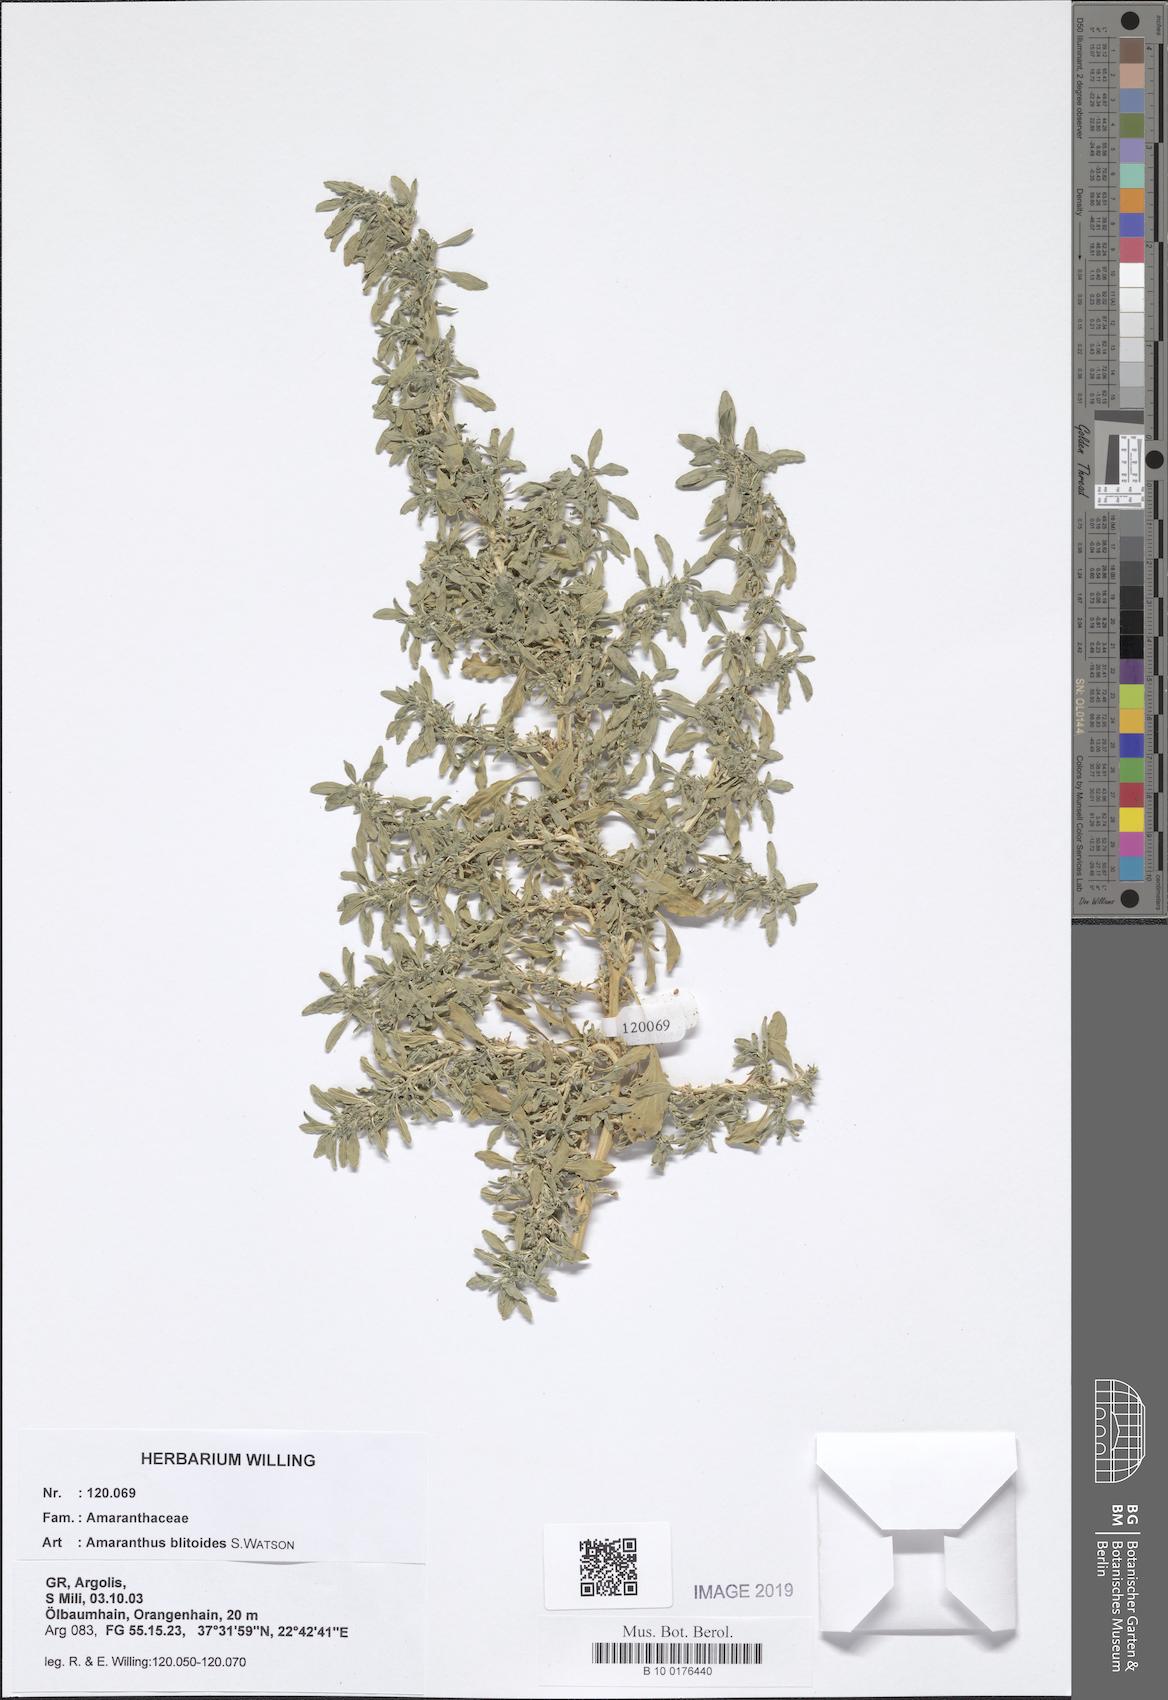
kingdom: Plantae
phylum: Tracheophyta
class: Magnoliopsida
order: Caryophyllales
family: Amaranthaceae
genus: Amaranthus
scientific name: Amaranthus blitoides
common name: Prostrate pigweed
